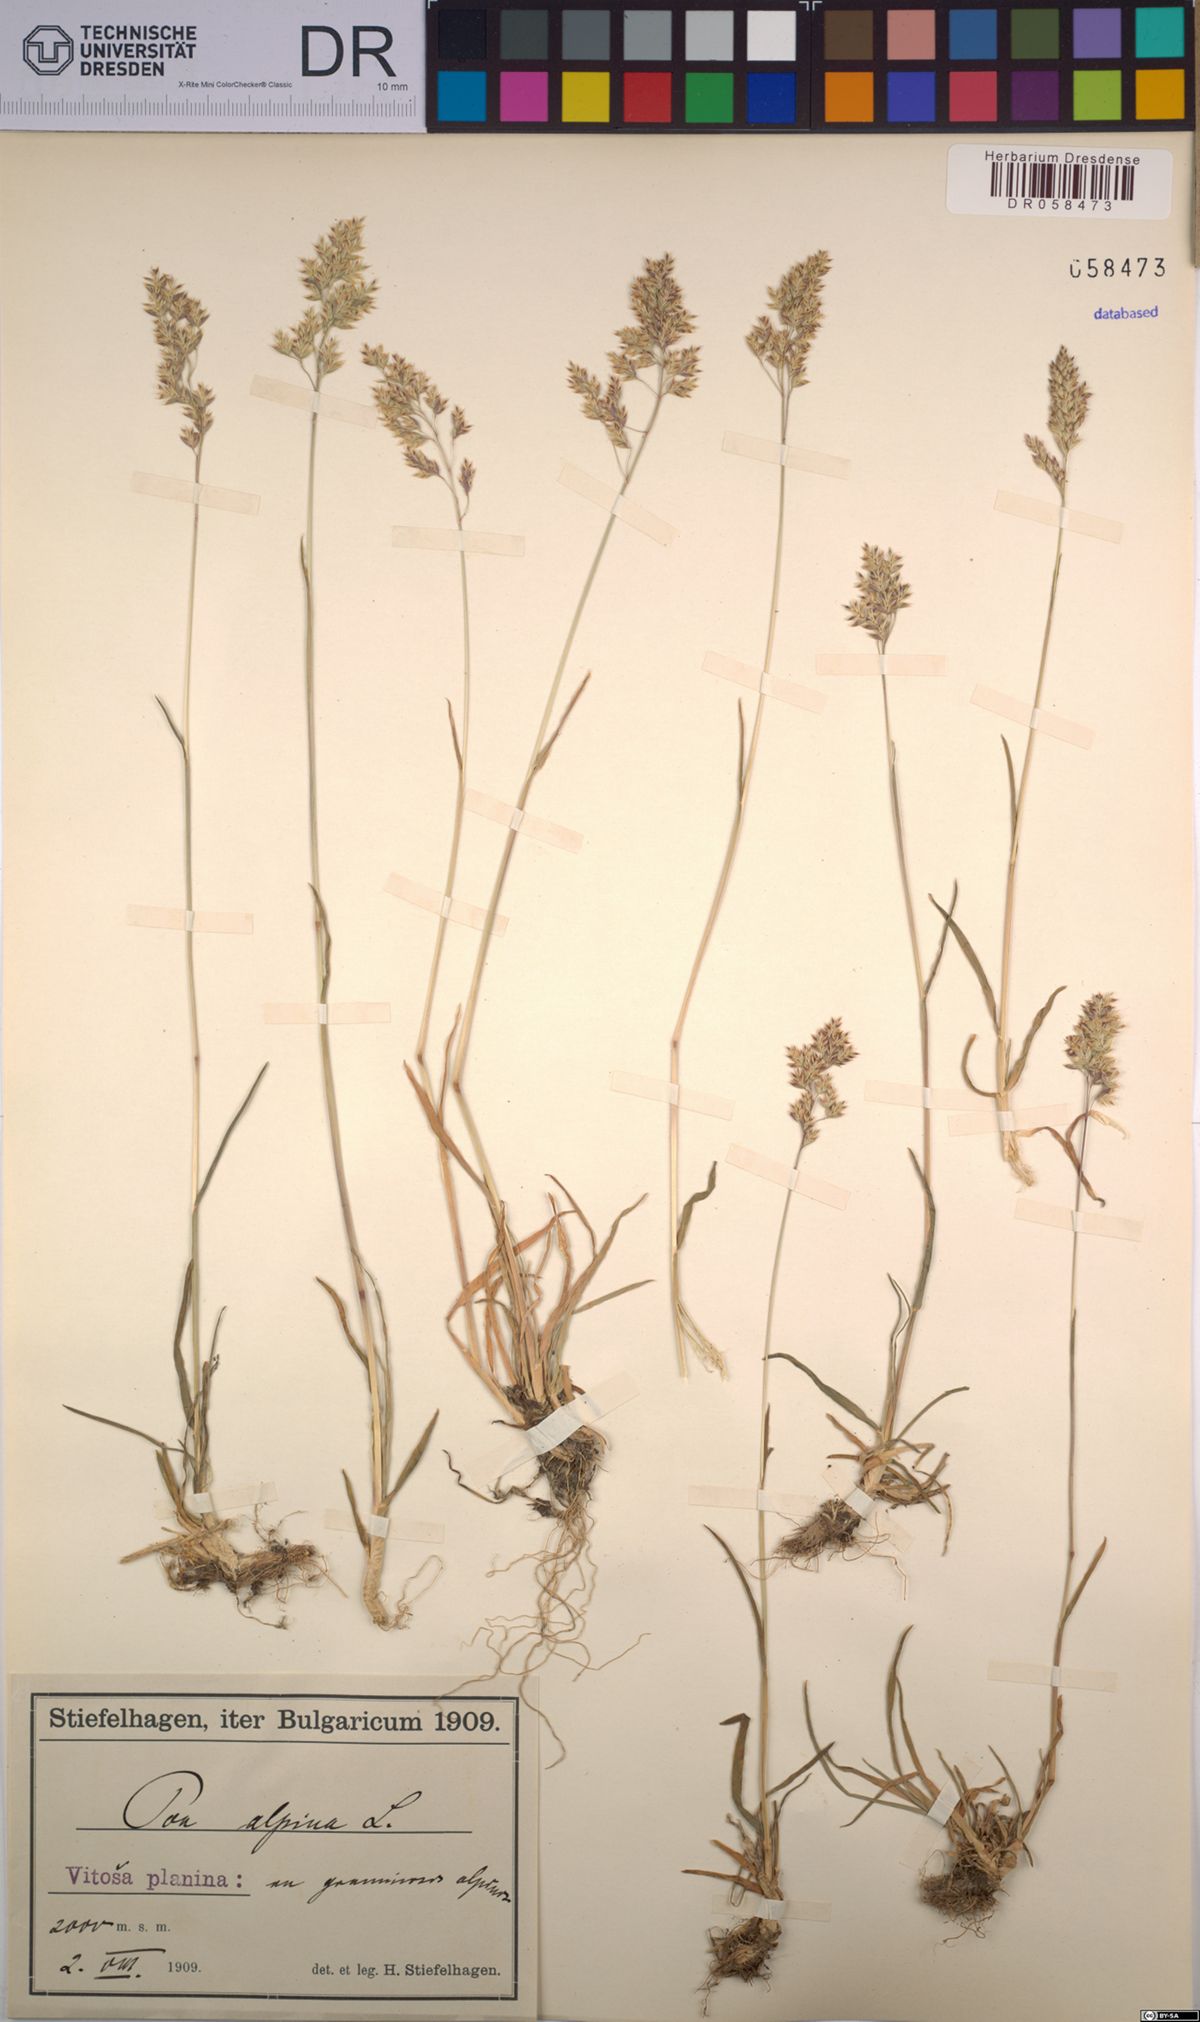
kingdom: Plantae
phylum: Tracheophyta
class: Liliopsida
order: Poales
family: Poaceae
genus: Poa
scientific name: Poa alpina
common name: Alpine bluegrass
